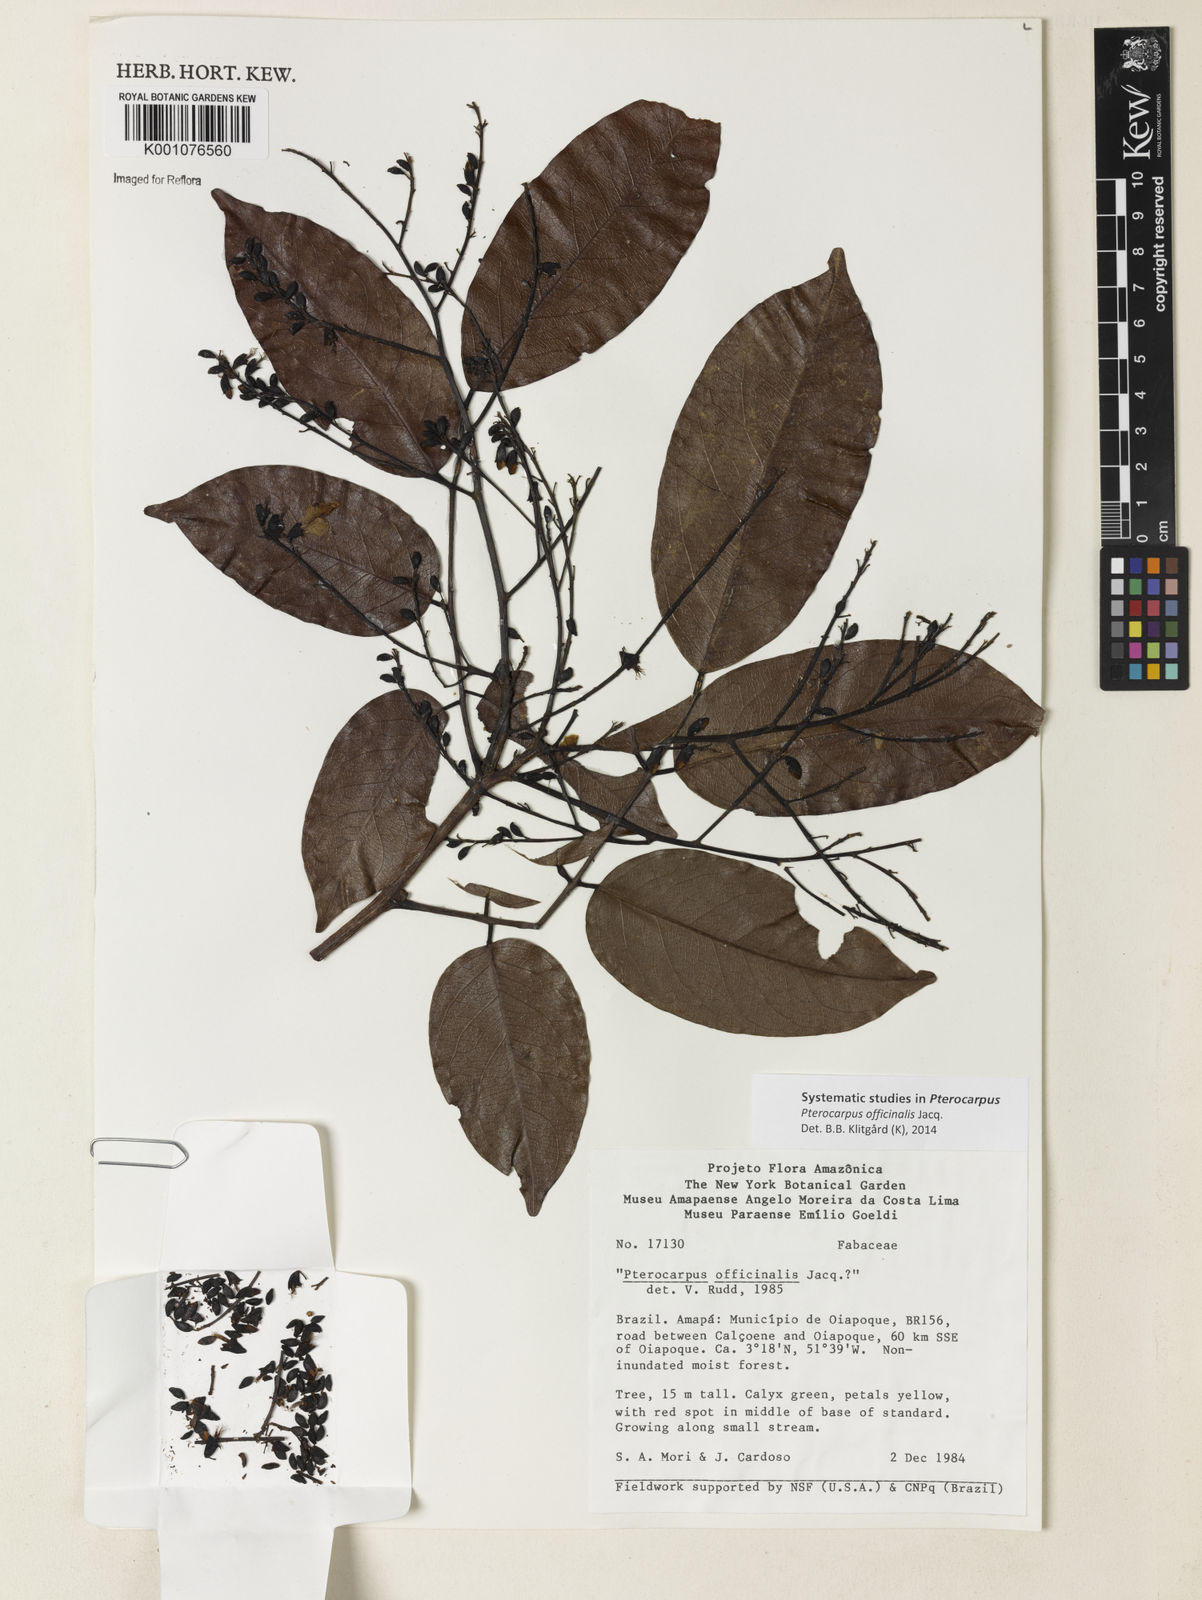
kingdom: Plantae
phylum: Tracheophyta
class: Magnoliopsida
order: Fabales
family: Fabaceae
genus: Pterocarpus
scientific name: Pterocarpus officinalis
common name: Bloodwood
